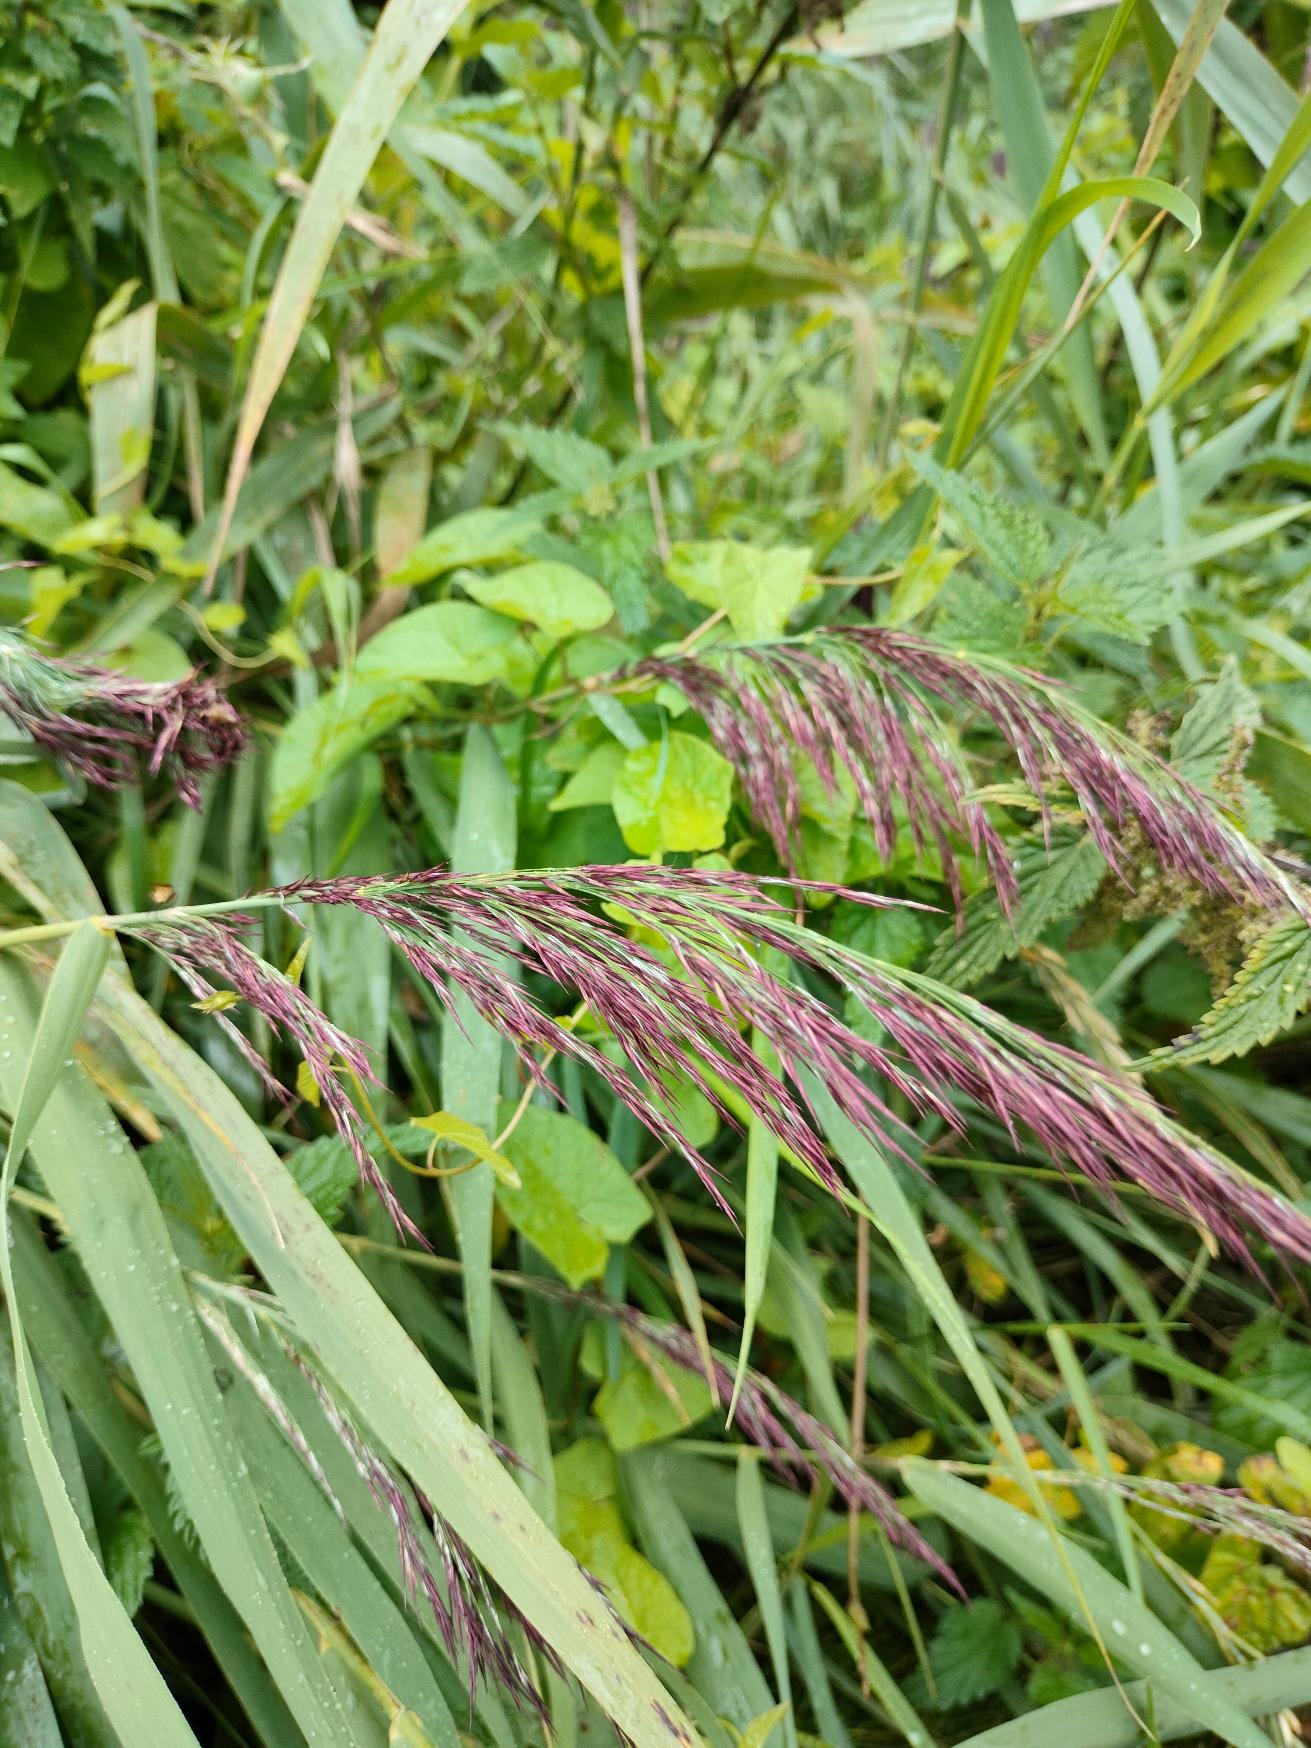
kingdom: Plantae
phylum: Tracheophyta
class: Liliopsida
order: Poales
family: Poaceae
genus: Phragmites
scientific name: Phragmites australis
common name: Tagrør
